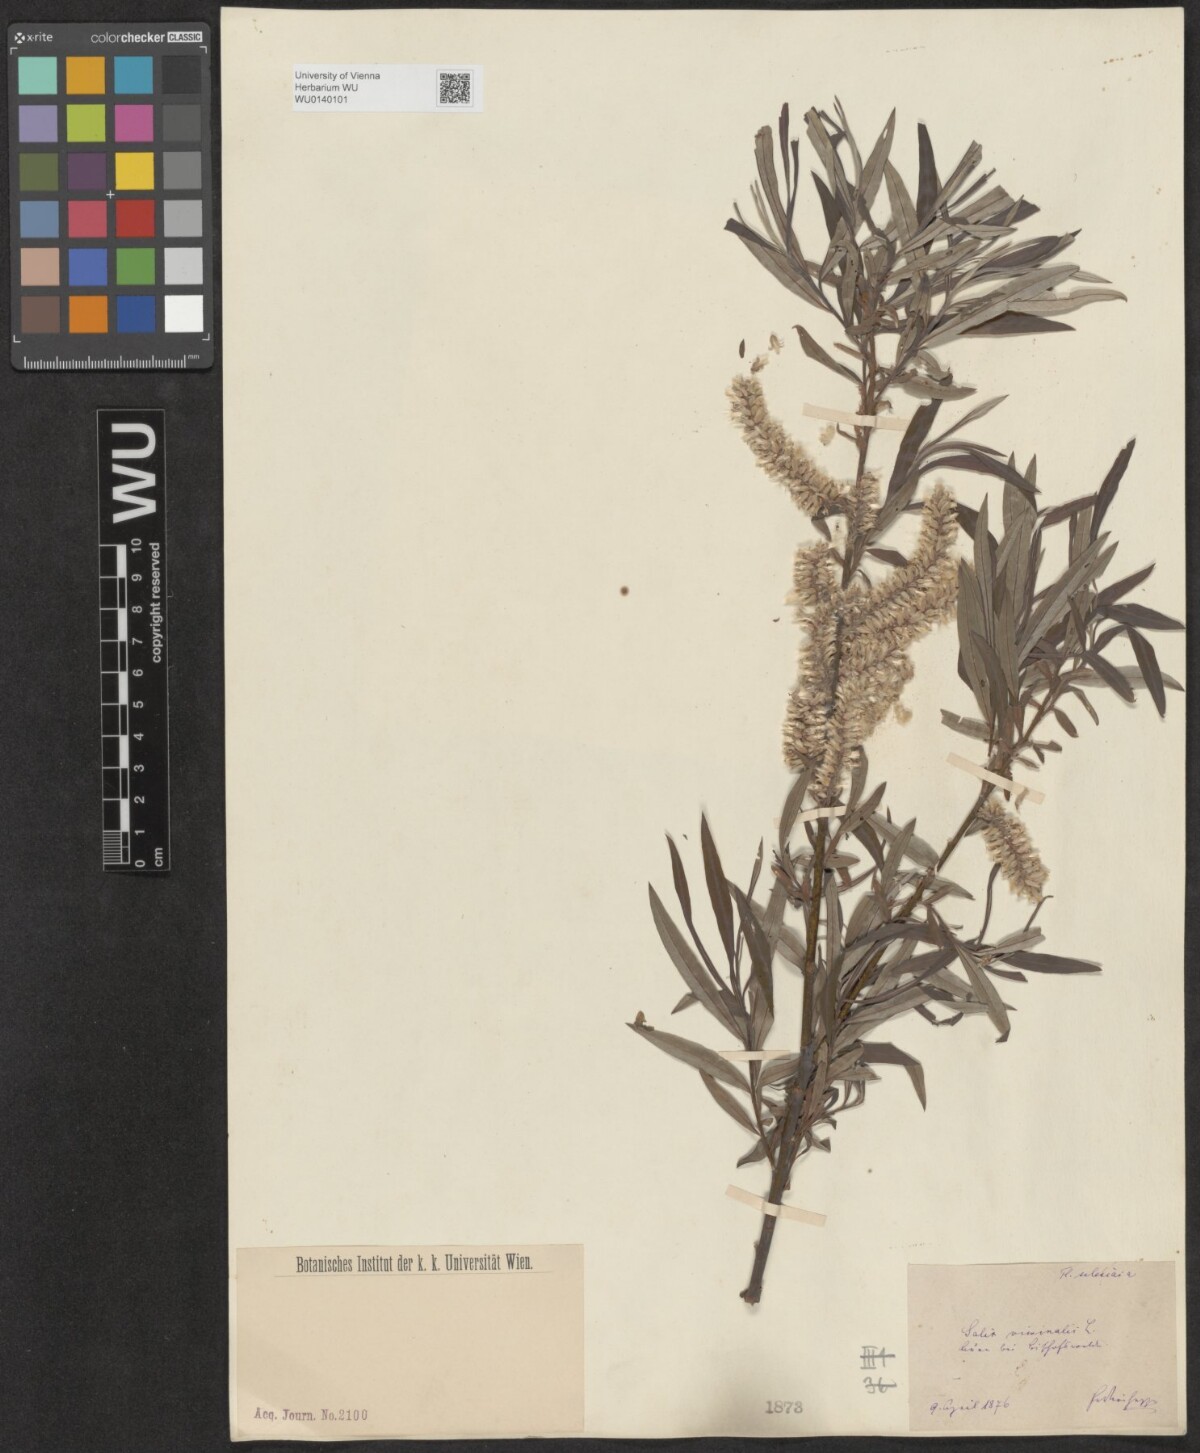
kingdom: Plantae
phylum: Tracheophyta
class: Magnoliopsida
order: Malpighiales
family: Salicaceae
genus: Salix
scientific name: Salix viminalis
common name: Osier
